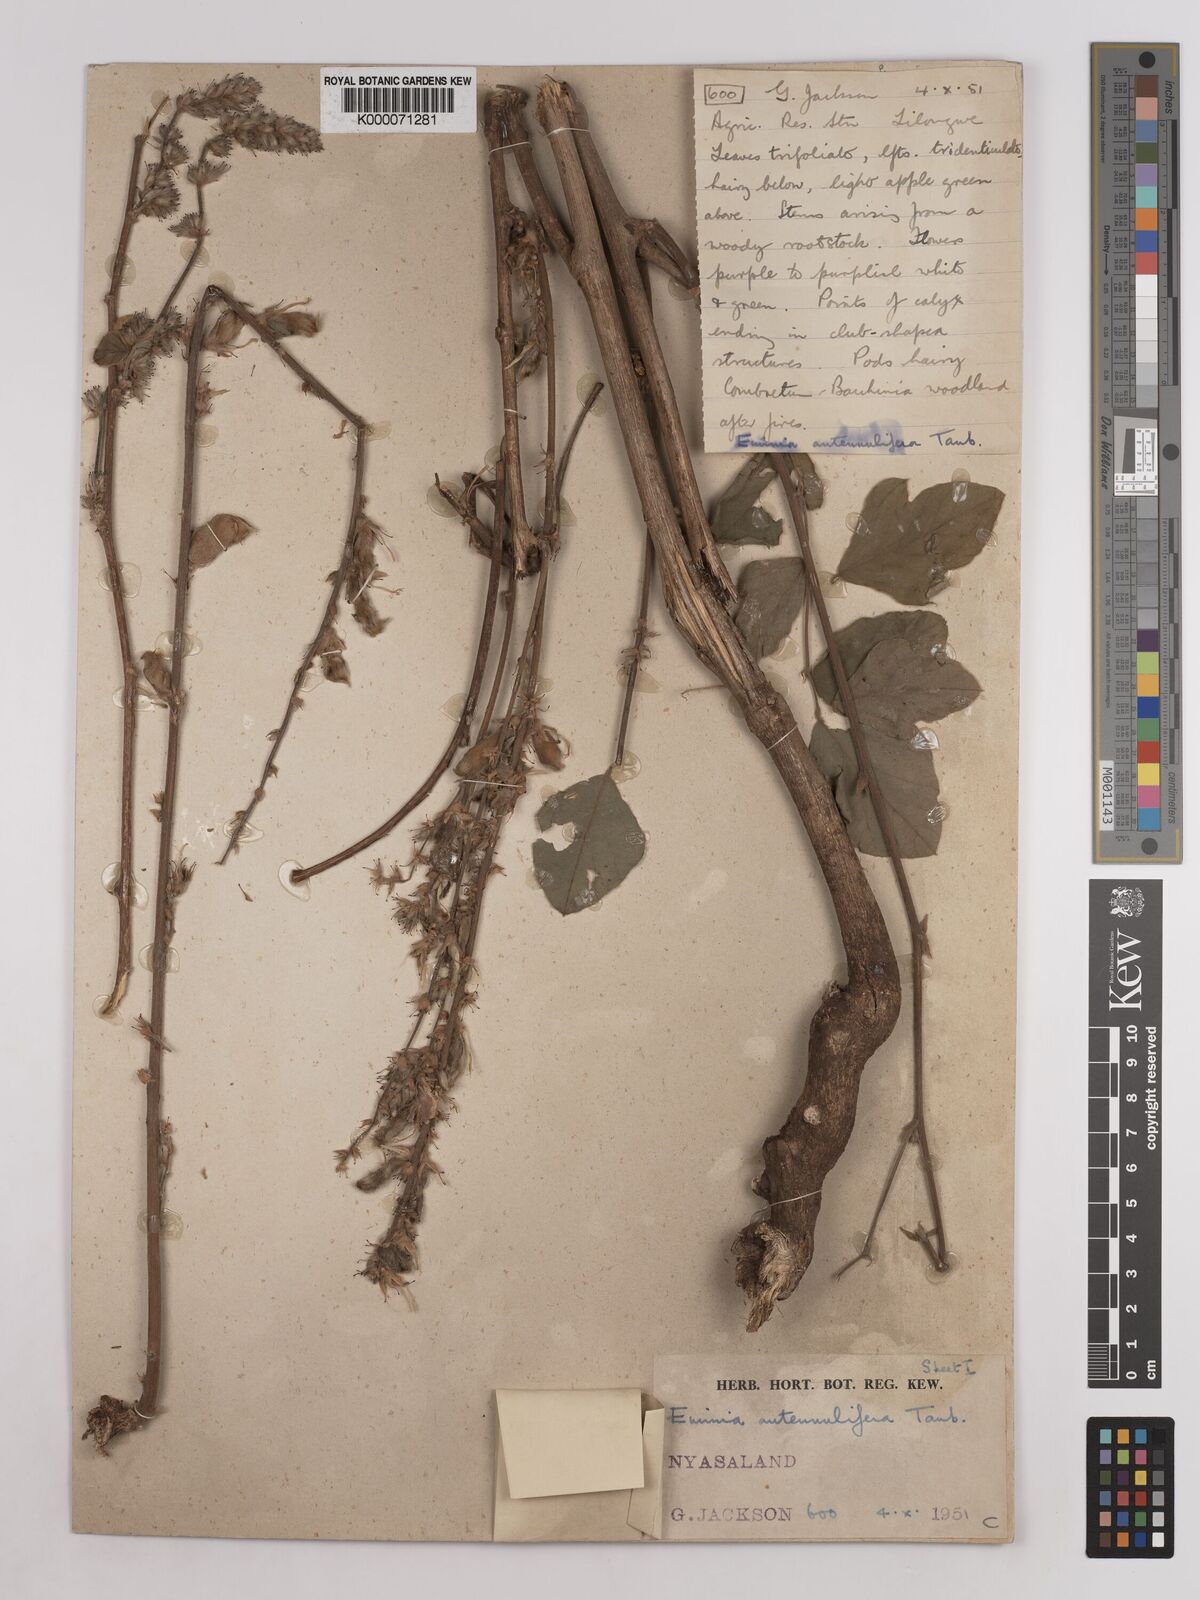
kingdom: Plantae
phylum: Tracheophyta
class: Magnoliopsida
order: Fabales
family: Fabaceae
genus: Eminia
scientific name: Eminia antennulifera
